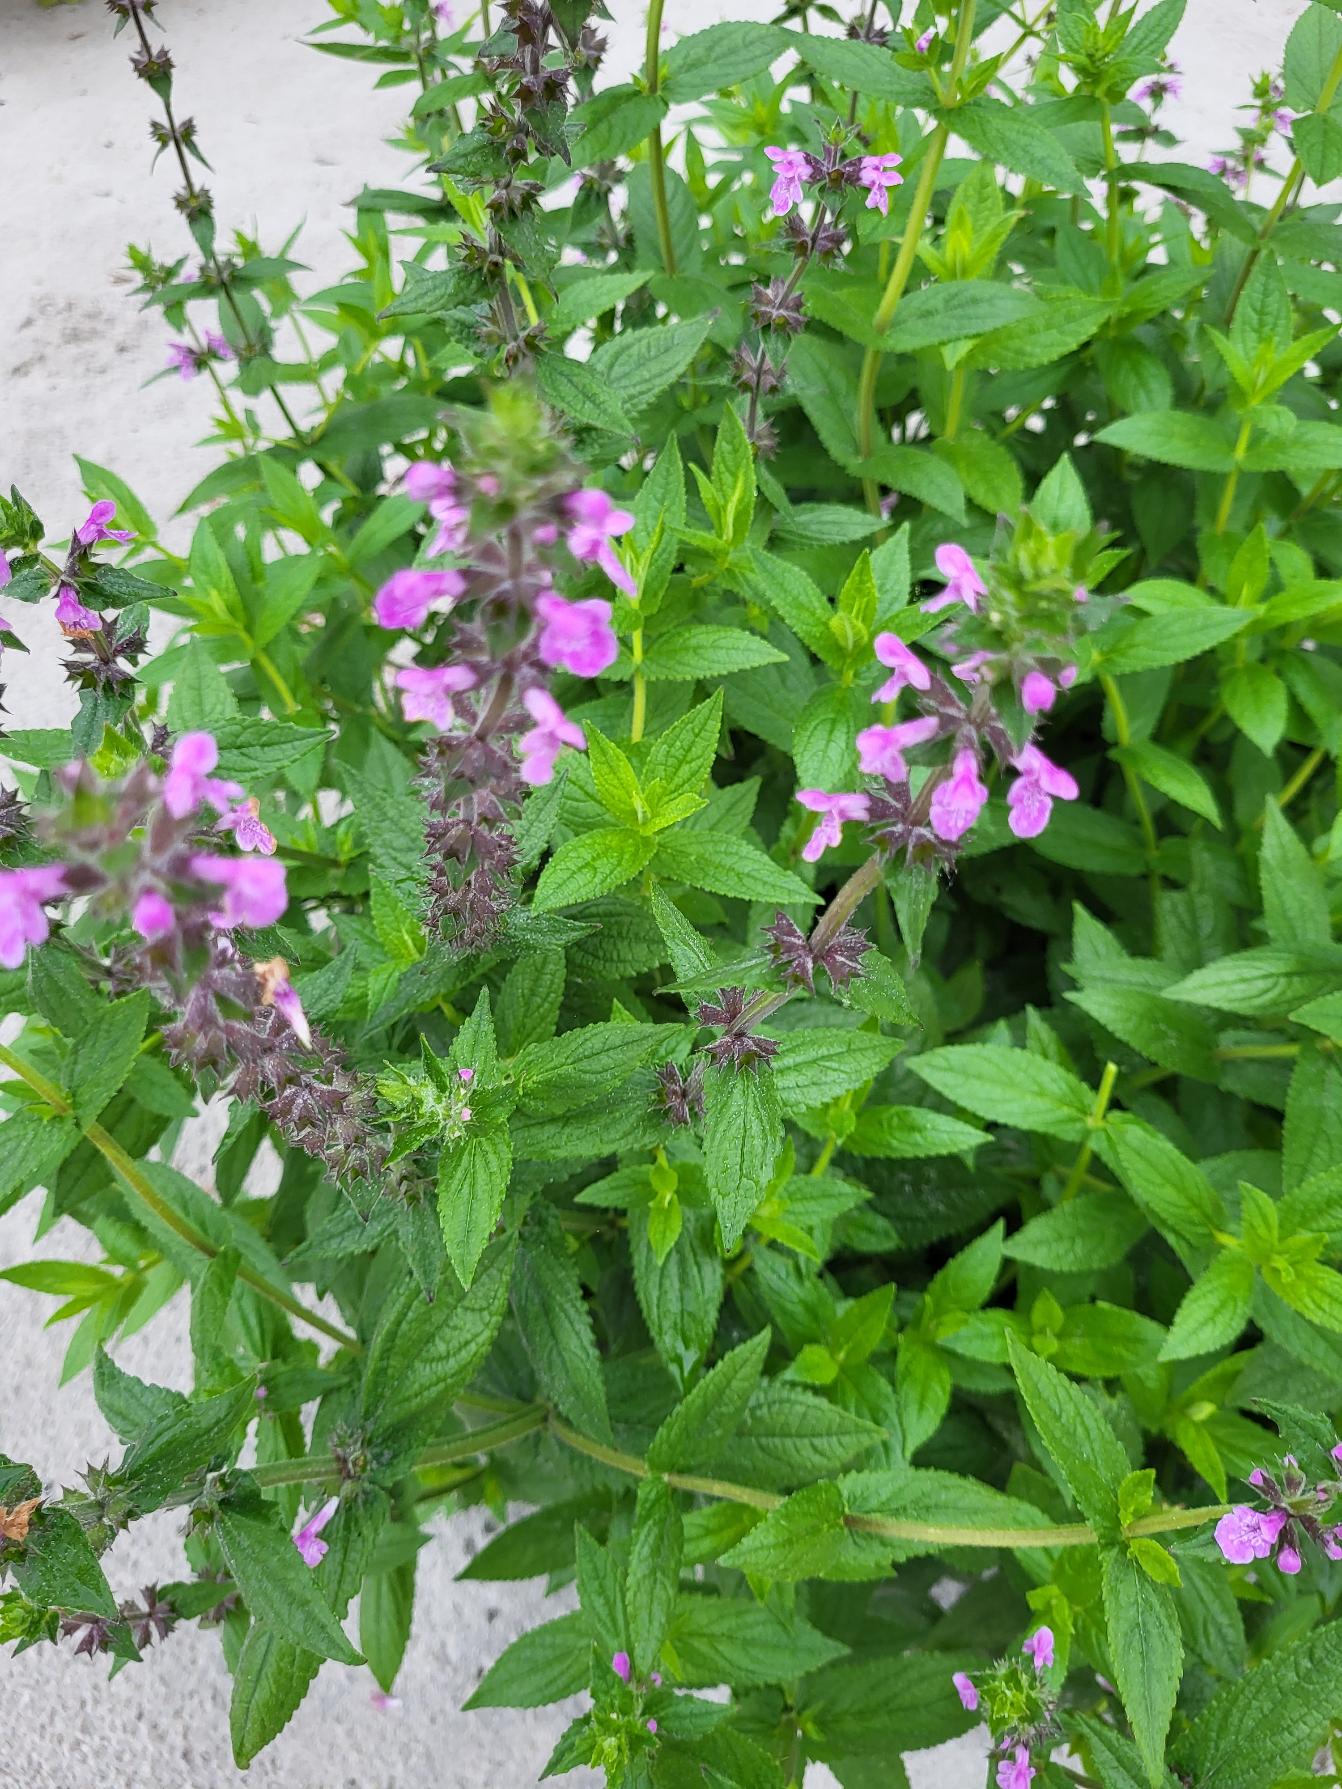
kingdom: Plantae
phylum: Tracheophyta
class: Magnoliopsida
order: Lamiales
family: Lamiaceae
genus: Stachys
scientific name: Stachys palustris
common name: Kær-galtetand
